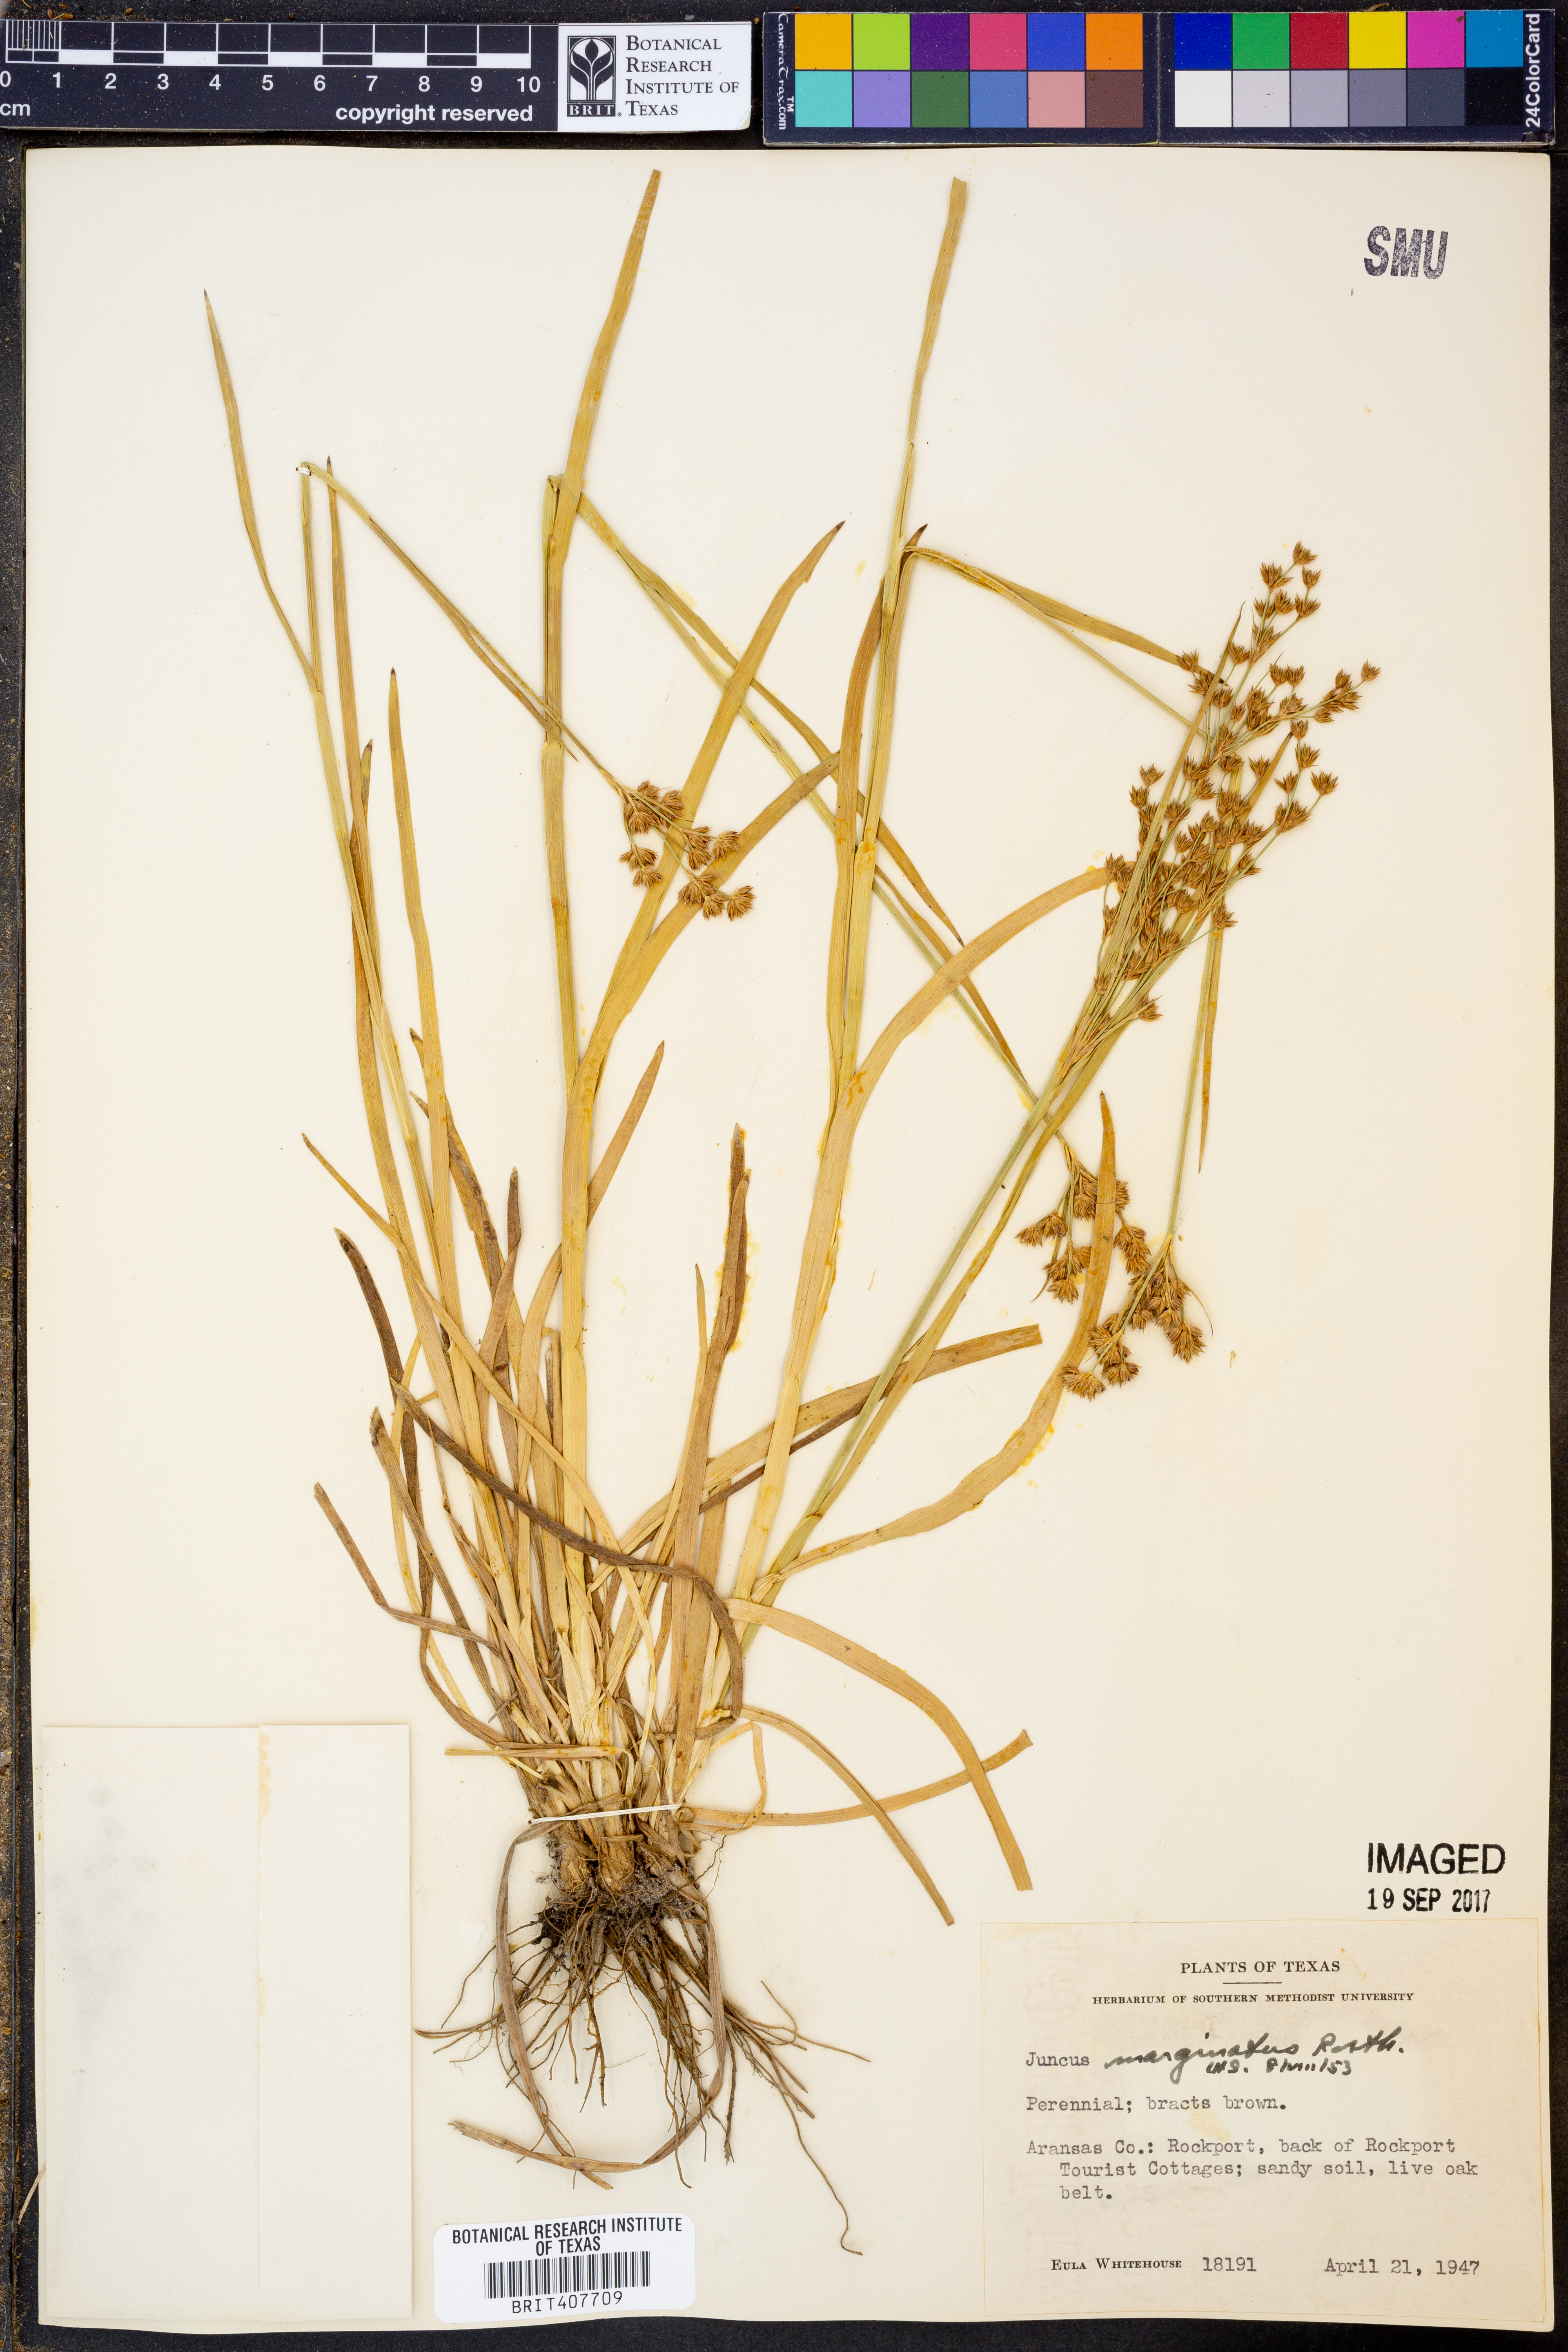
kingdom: Plantae
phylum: Tracheophyta
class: Liliopsida
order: Poales
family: Juncaceae
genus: Juncus
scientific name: Juncus marginatus
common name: Grass-leaf rush
